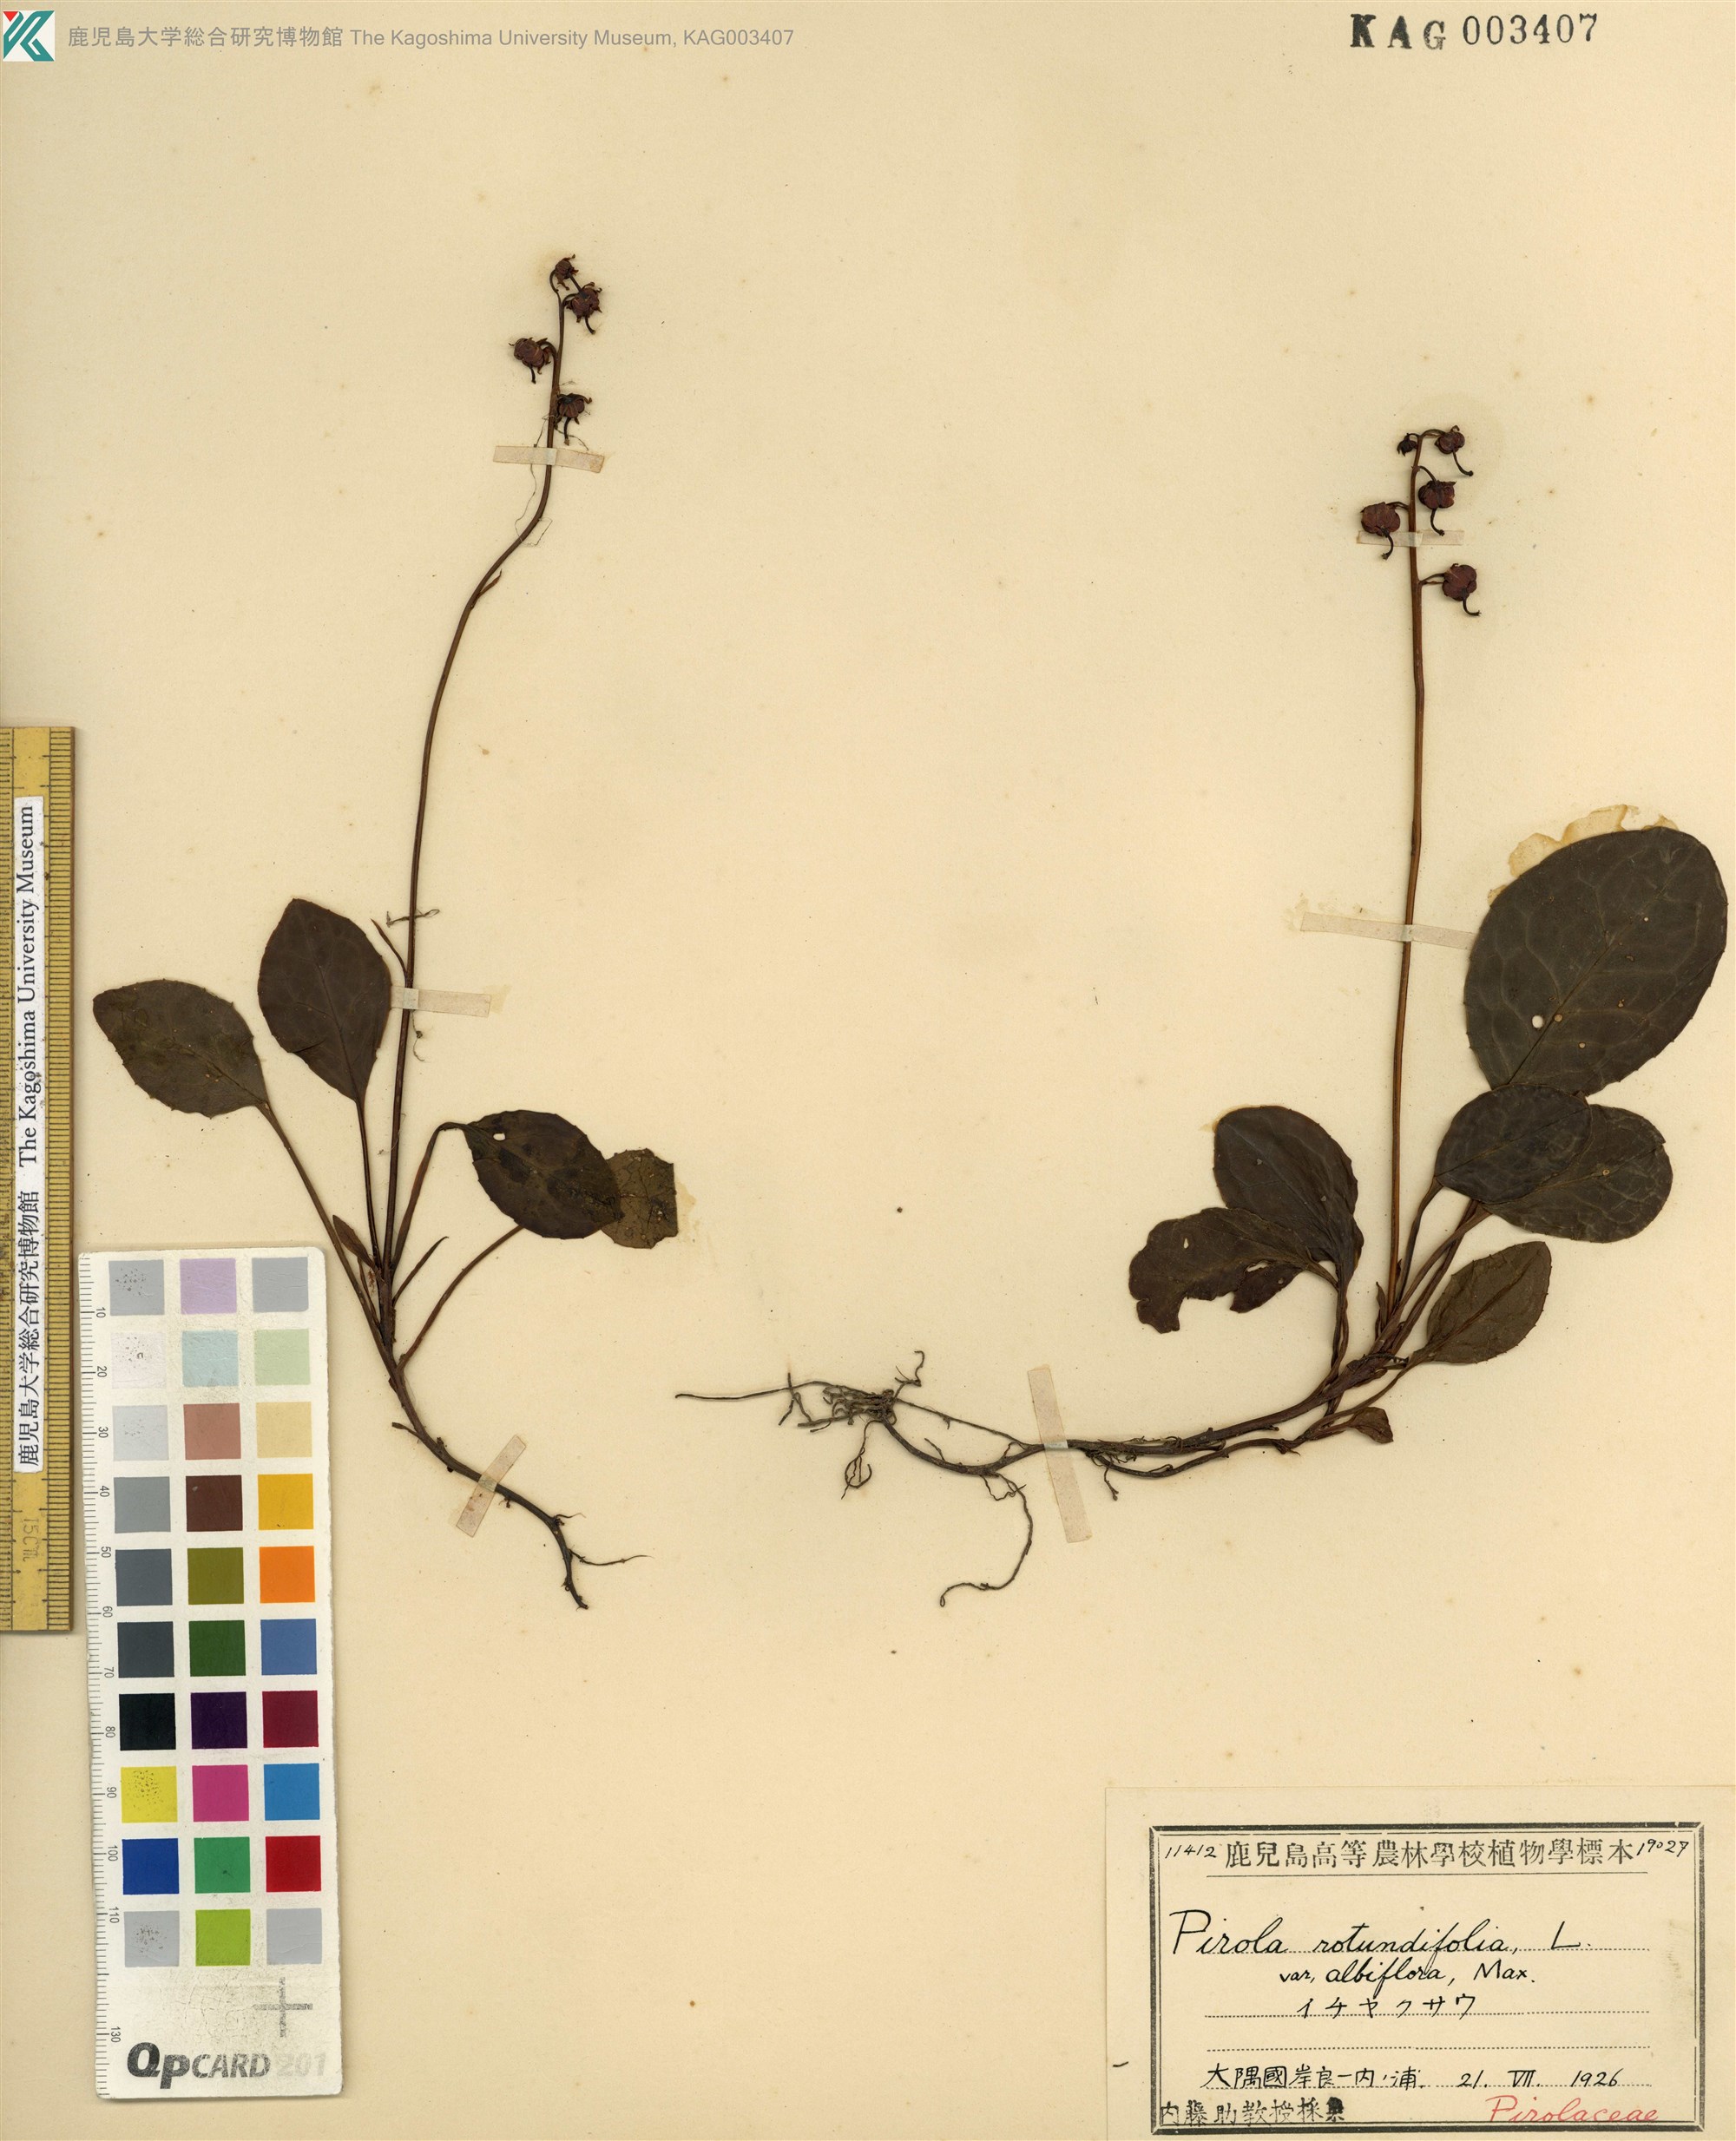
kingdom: Plantae
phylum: Tracheophyta
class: Magnoliopsida
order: Ericales
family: Ericaceae
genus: Pyrola
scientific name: Pyrola japonica
